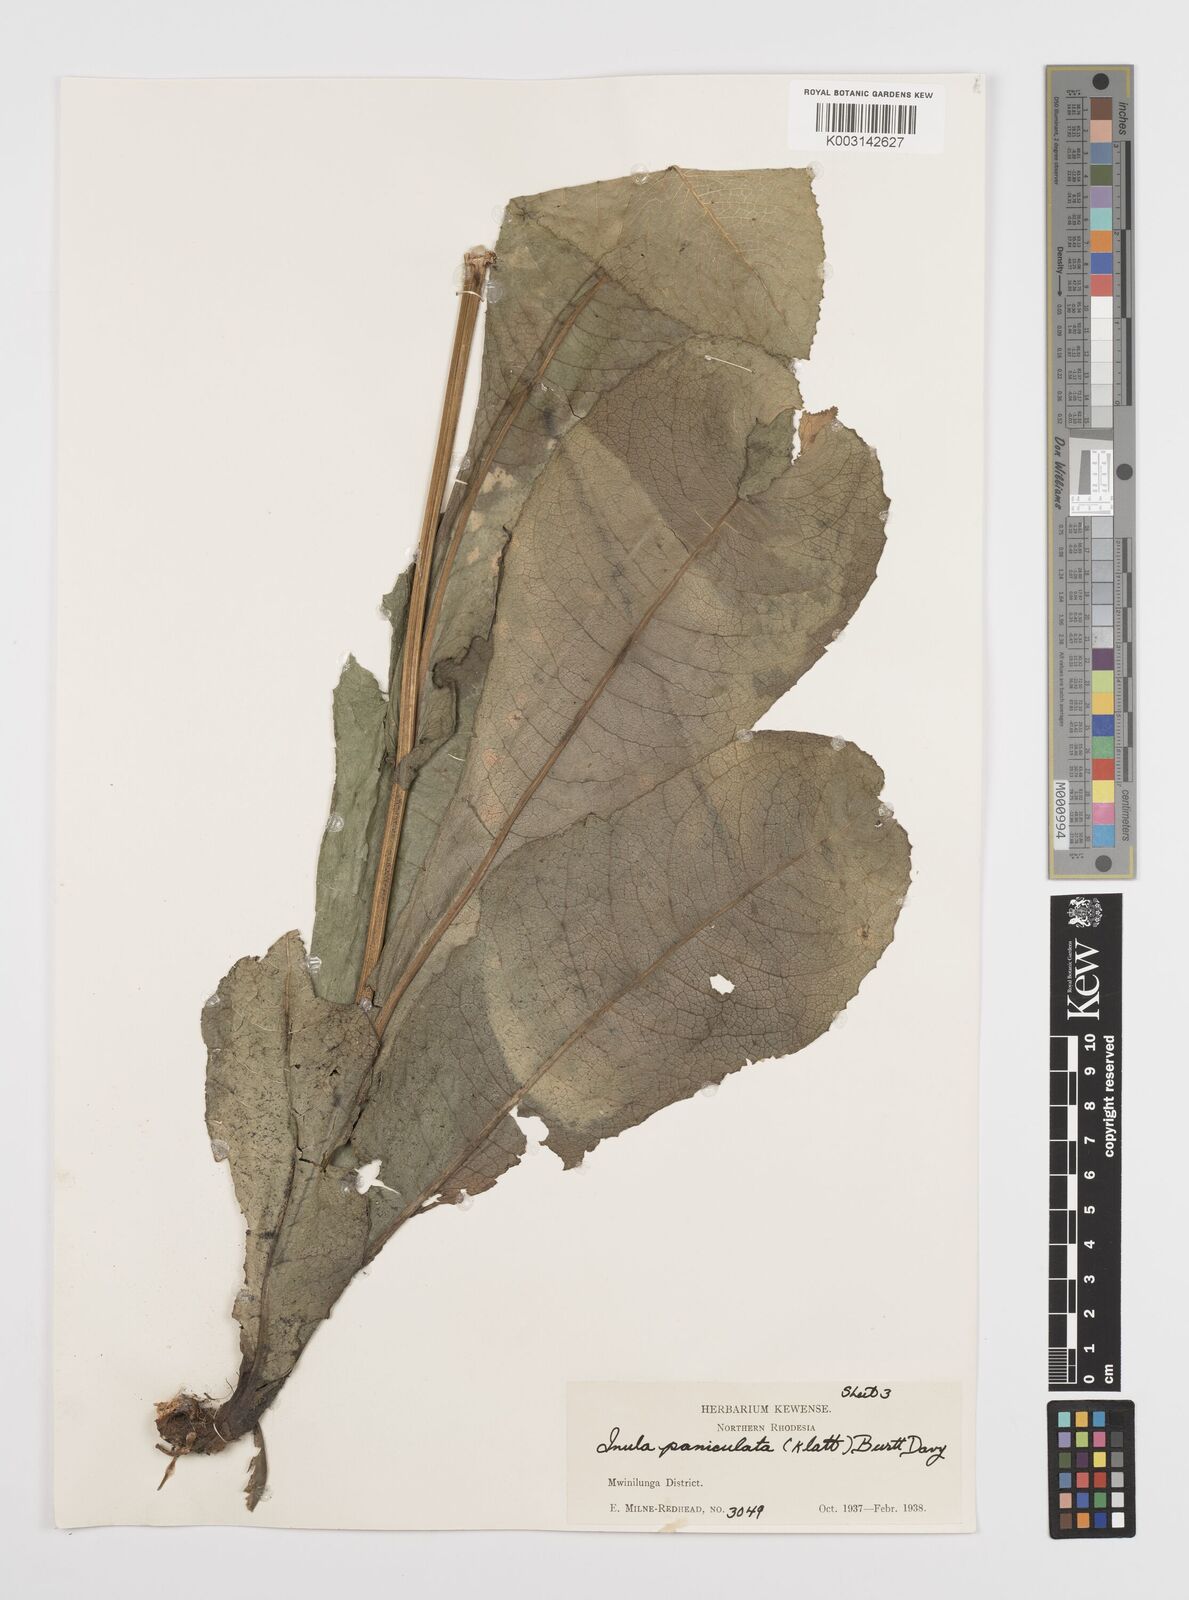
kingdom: Plantae
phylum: Tracheophyta
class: Magnoliopsida
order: Asterales
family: Asteraceae
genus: Monactinocephalus
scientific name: Monactinocephalus paniculatus
